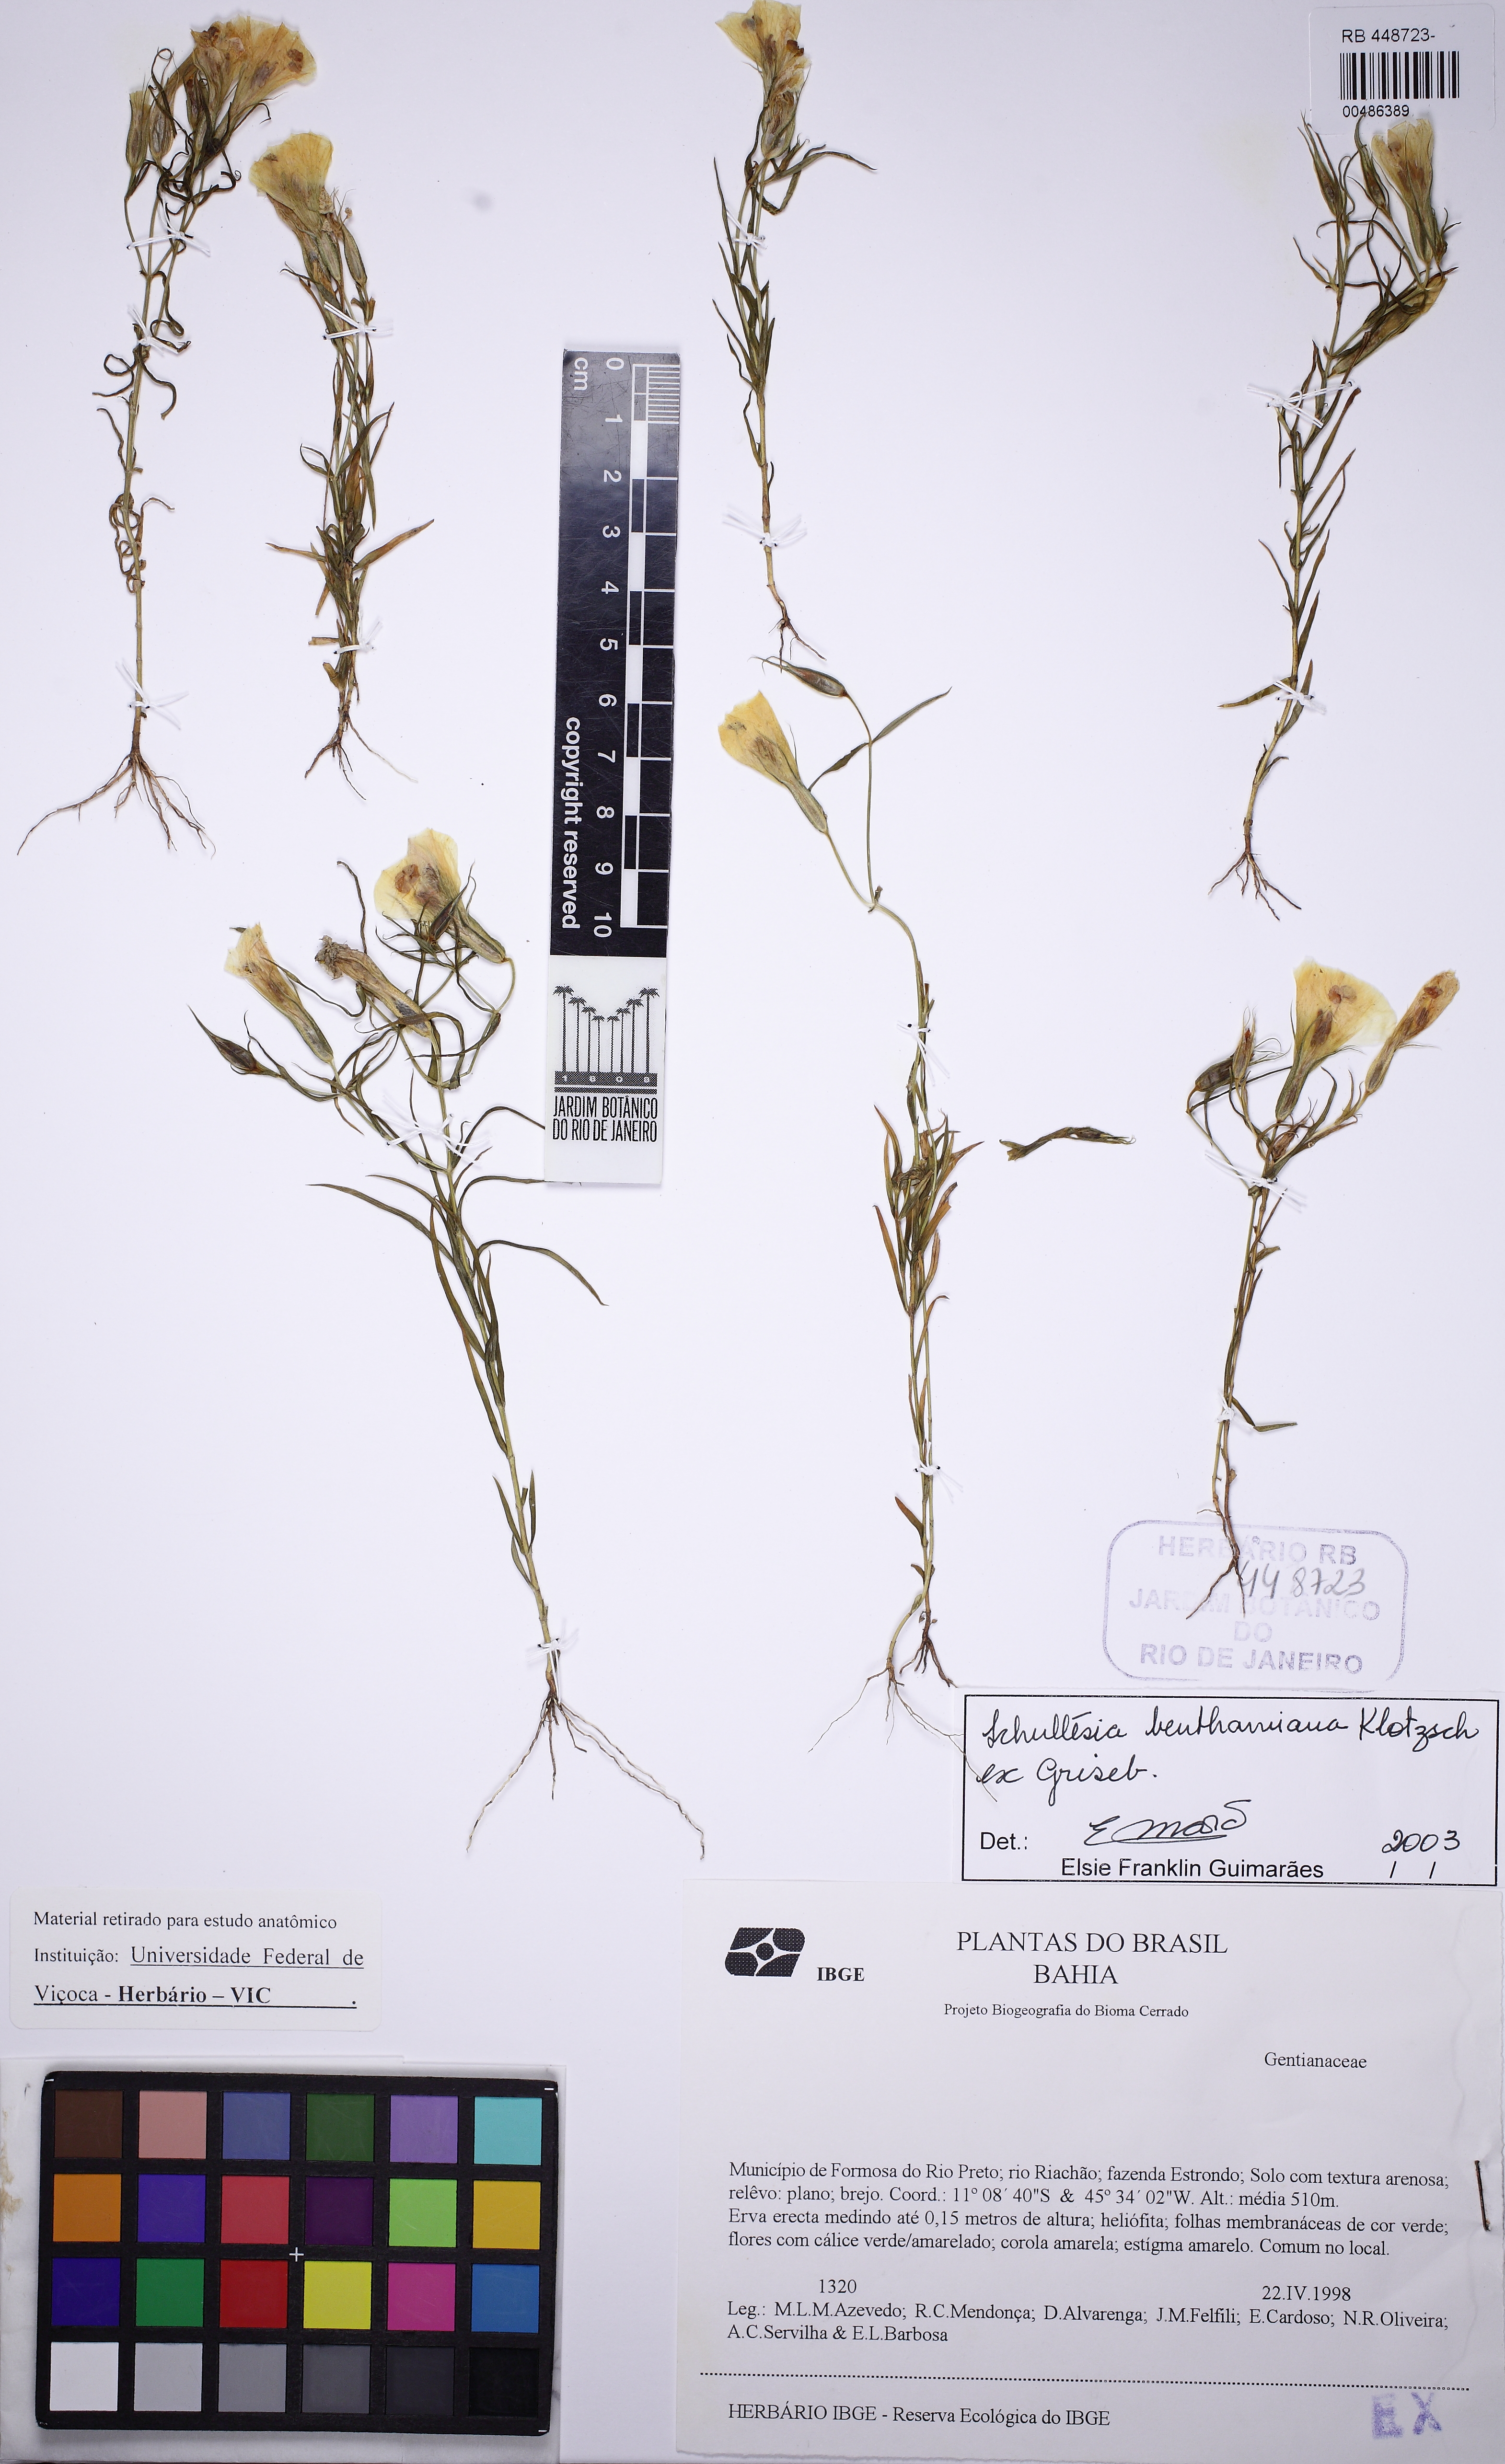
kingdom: Plantae
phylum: Tracheophyta
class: Magnoliopsida
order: Gentianales
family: Gentianaceae
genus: Schultesia
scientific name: Schultesia benthamiana
